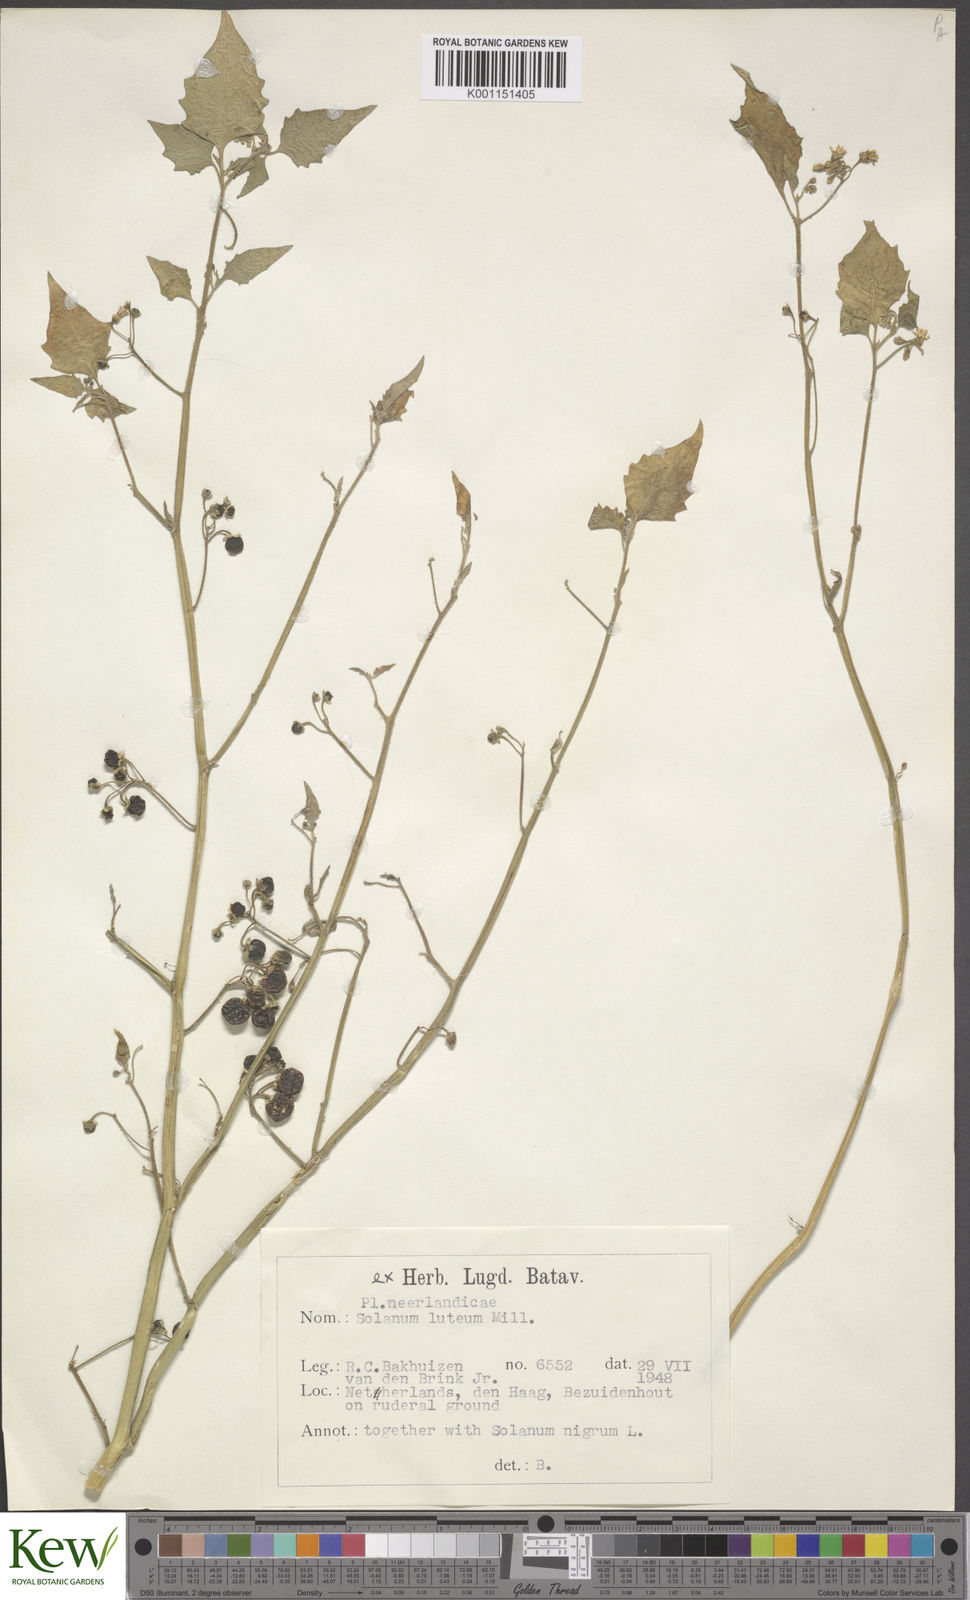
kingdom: Plantae
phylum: Tracheophyta
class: Magnoliopsida
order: Solanales
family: Solanaceae
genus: Solanum
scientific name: Solanum villosum
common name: Red nightshade
